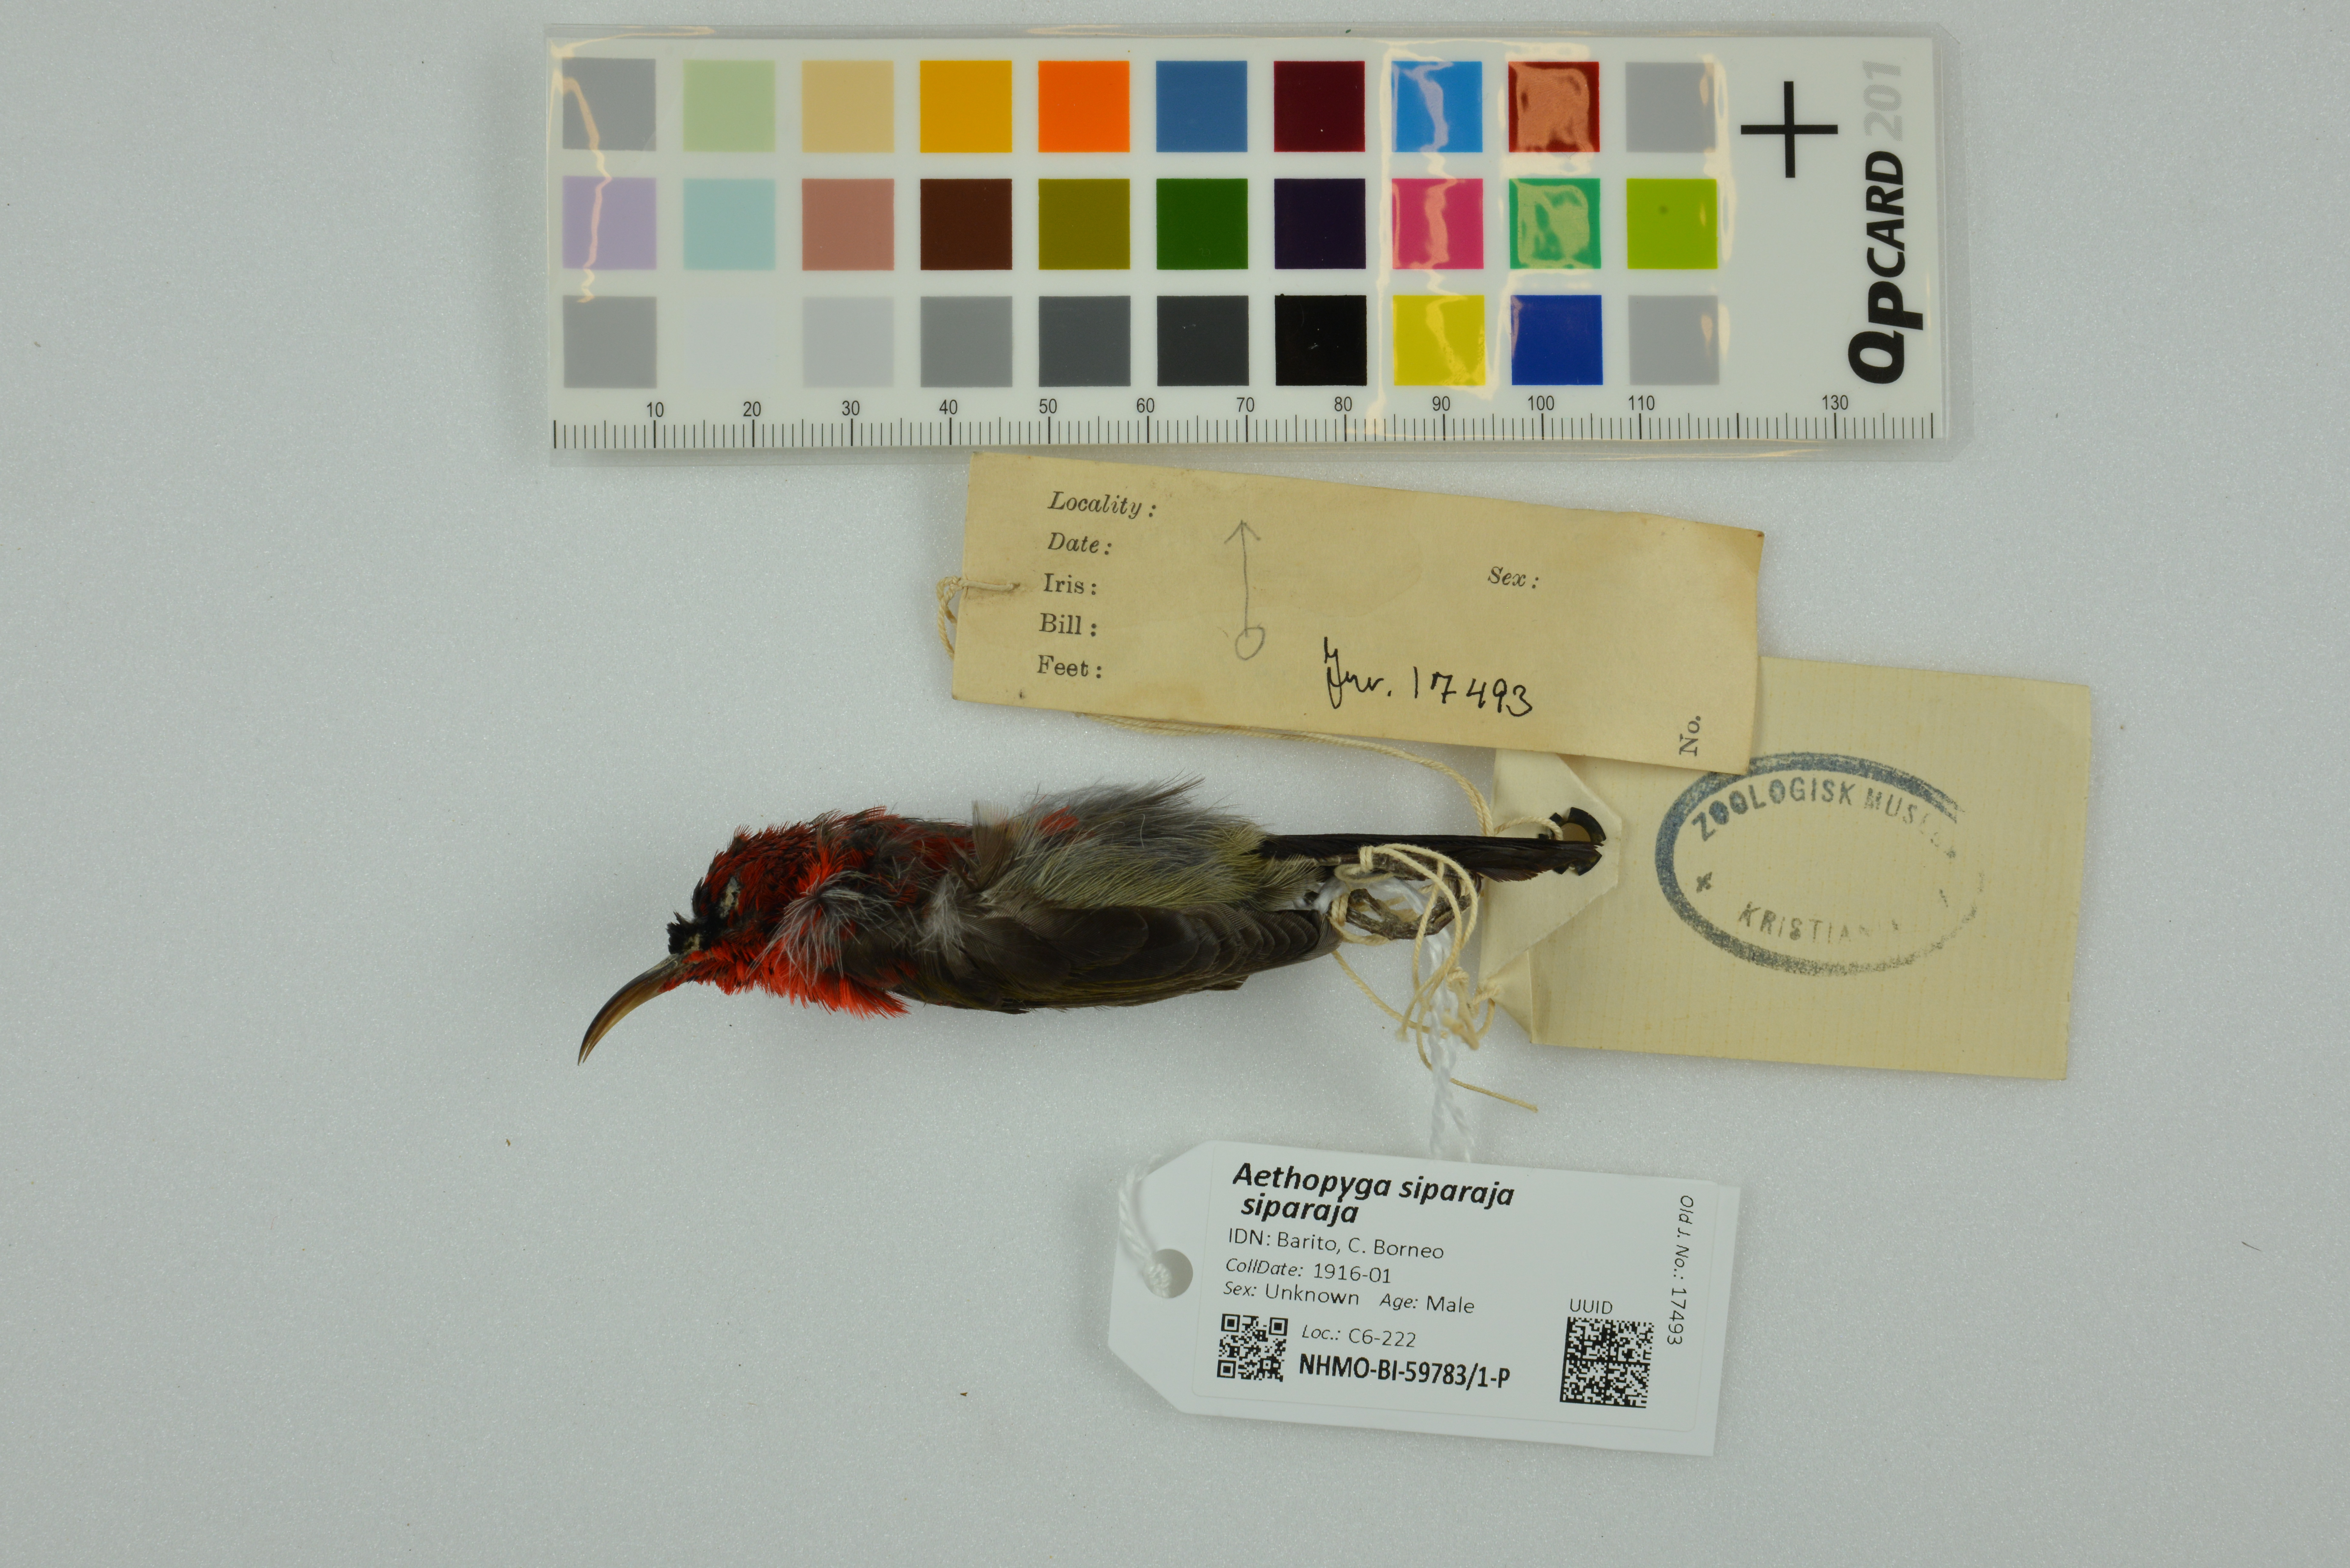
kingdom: Animalia
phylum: Chordata
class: Aves
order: Passeriformes
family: Nectariniidae
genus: Aethopyga
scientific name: Aethopyga siparaja
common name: Crimson sunbird
